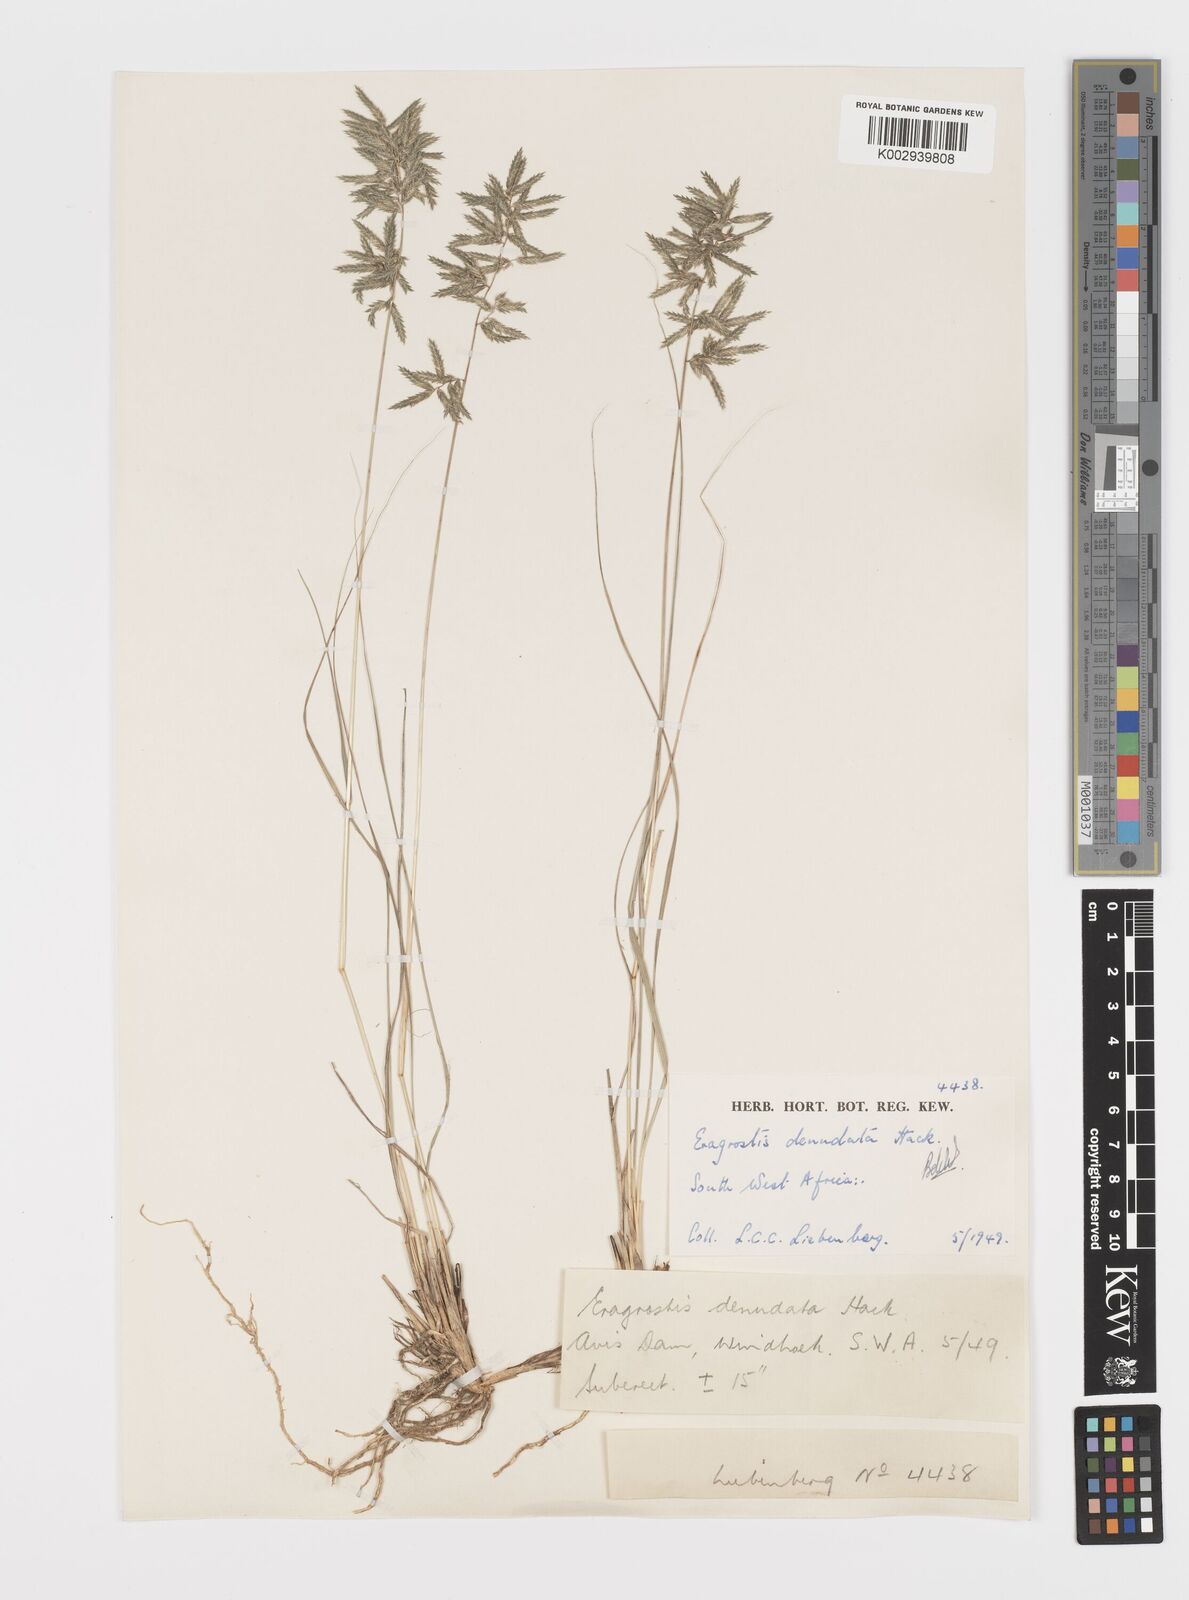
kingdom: Plantae
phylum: Tracheophyta
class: Liliopsida
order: Poales
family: Poaceae
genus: Eragrostis
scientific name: Eragrostis nindensis
